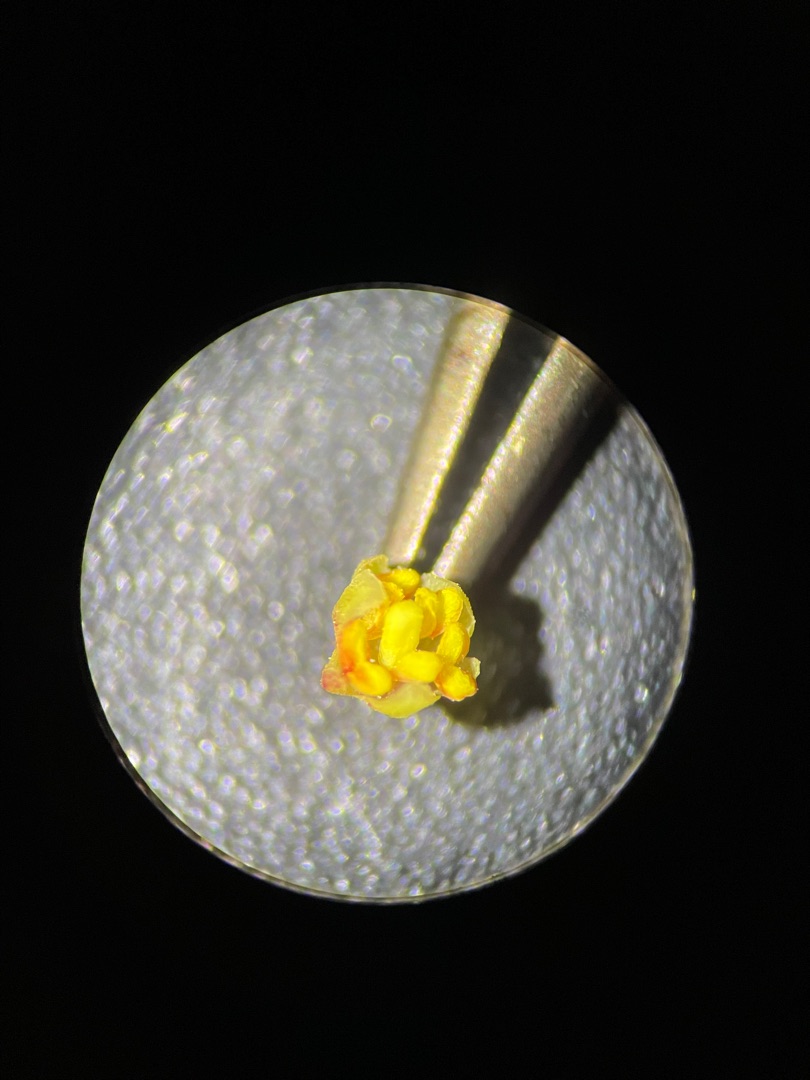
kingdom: Plantae
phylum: Tracheophyta
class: Magnoliopsida
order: Caryophyllales
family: Polygonaceae
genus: Rumex
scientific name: Rumex acetosella
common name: Rødknæ
